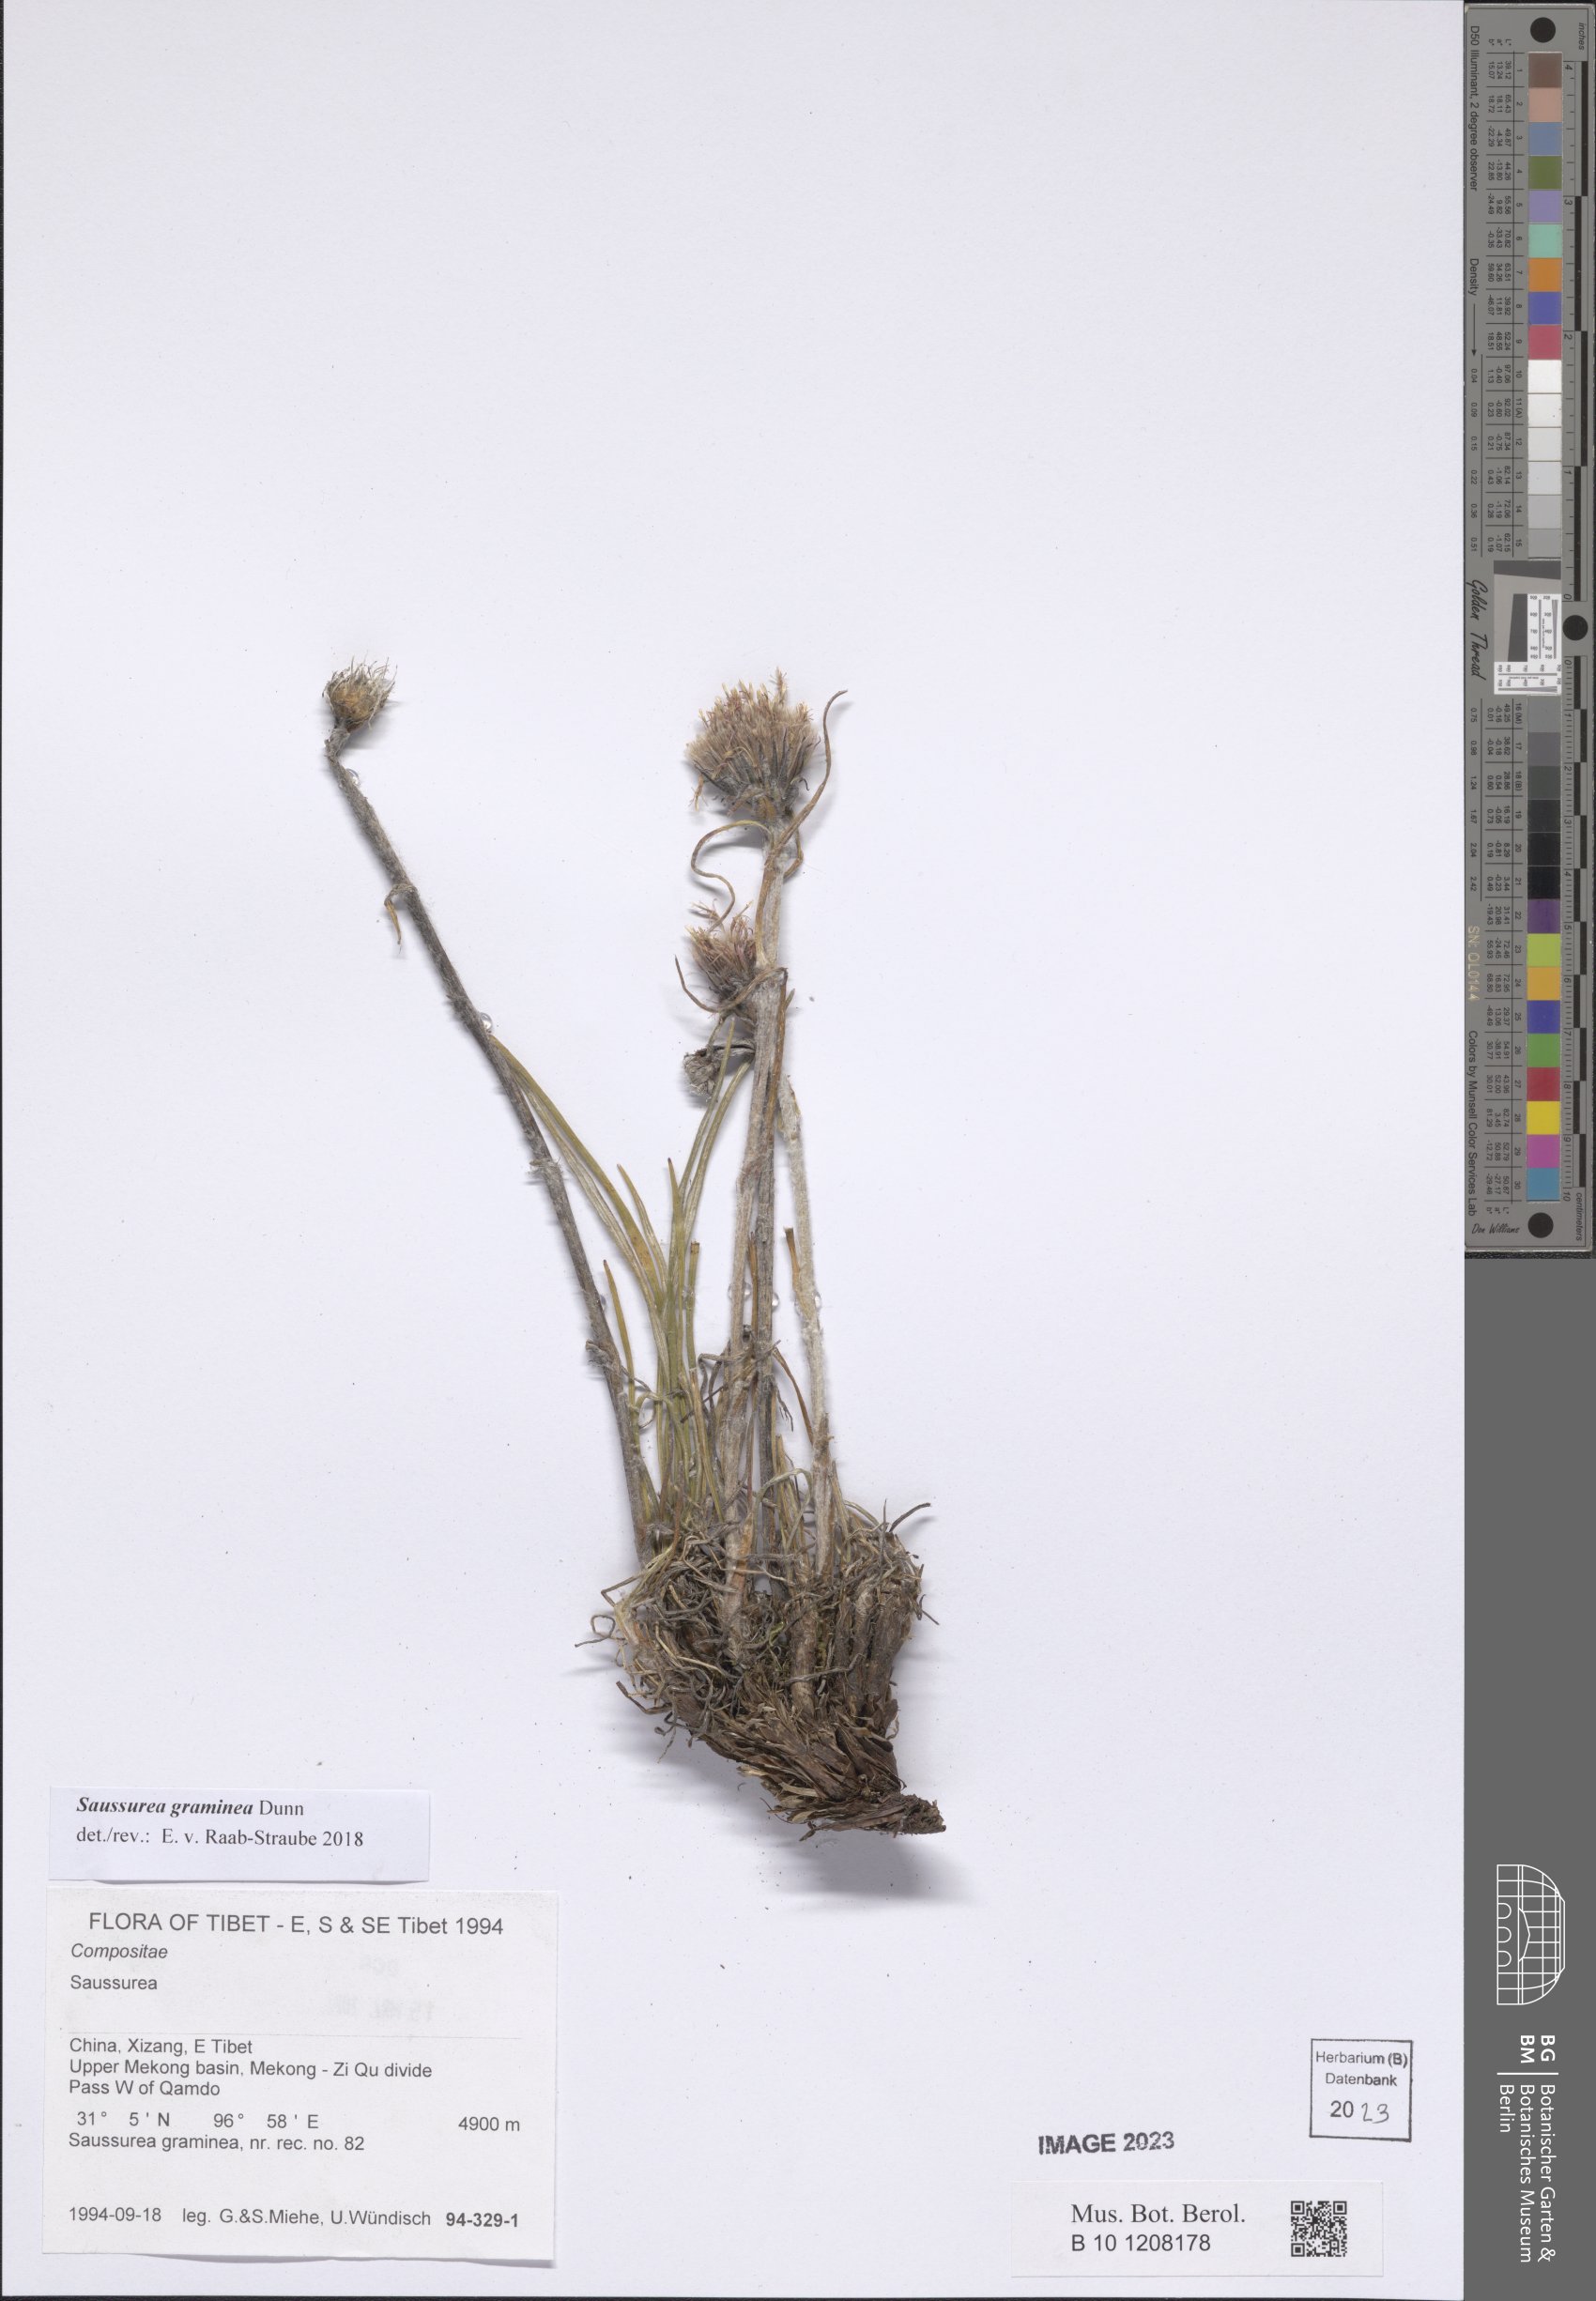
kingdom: Plantae
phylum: Tracheophyta
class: Magnoliopsida
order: Asterales
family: Asteraceae
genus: Saussurea
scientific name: Saussurea graminea
